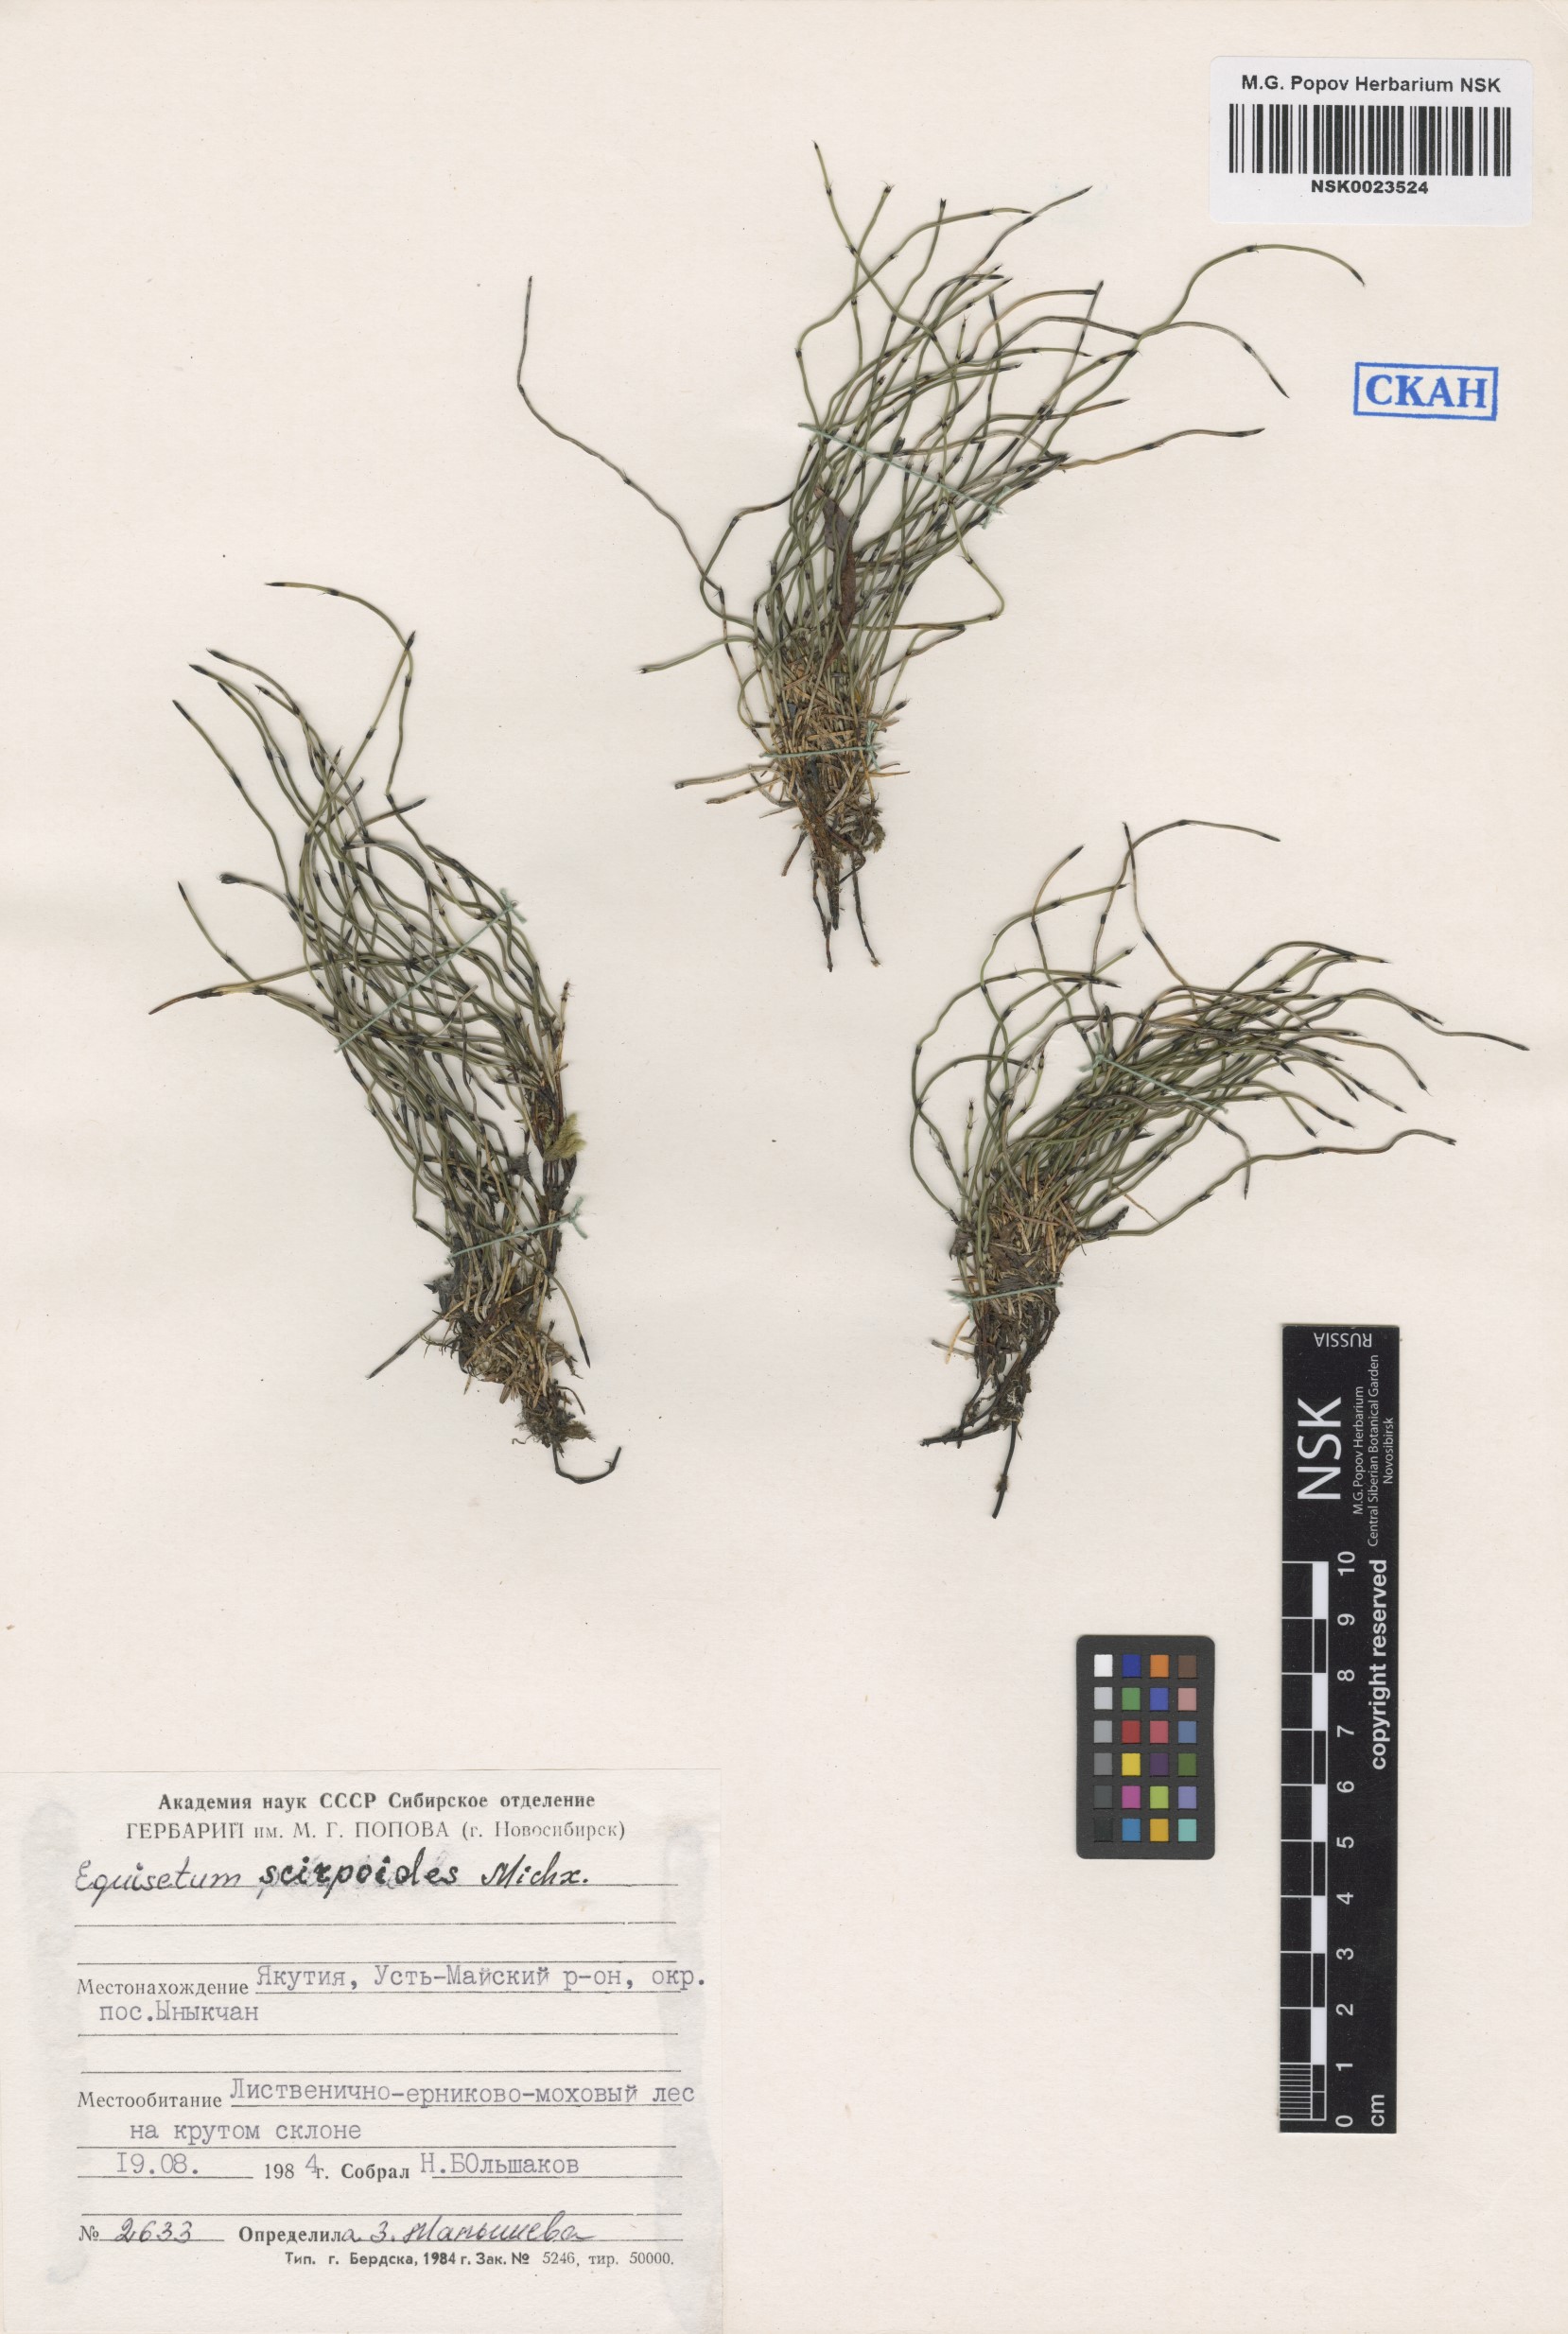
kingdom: Plantae
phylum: Tracheophyta
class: Polypodiopsida
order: Equisetales
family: Equisetaceae
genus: Equisetum
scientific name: Equisetum scirpoides
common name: Delicate horsetail
